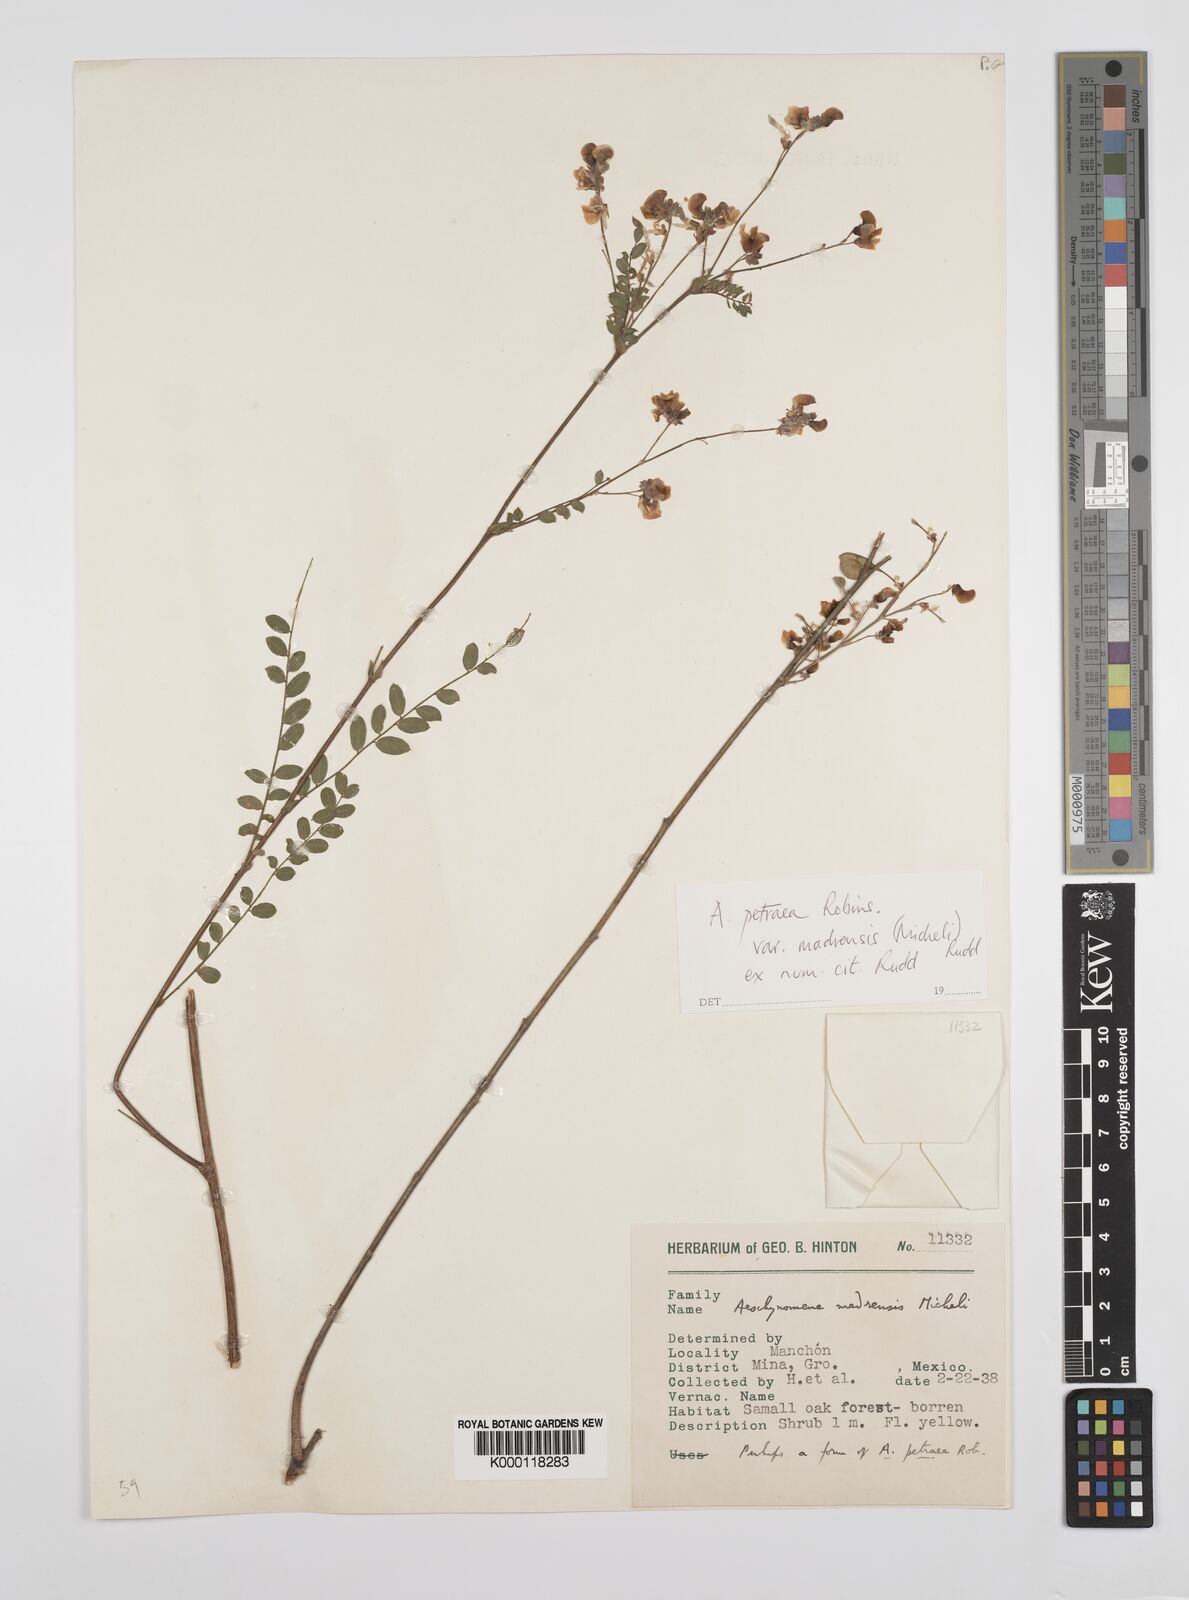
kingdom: Plantae
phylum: Tracheophyta
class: Magnoliopsida
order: Fabales
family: Fabaceae
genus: Ctenodon
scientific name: Ctenodon petraeus
